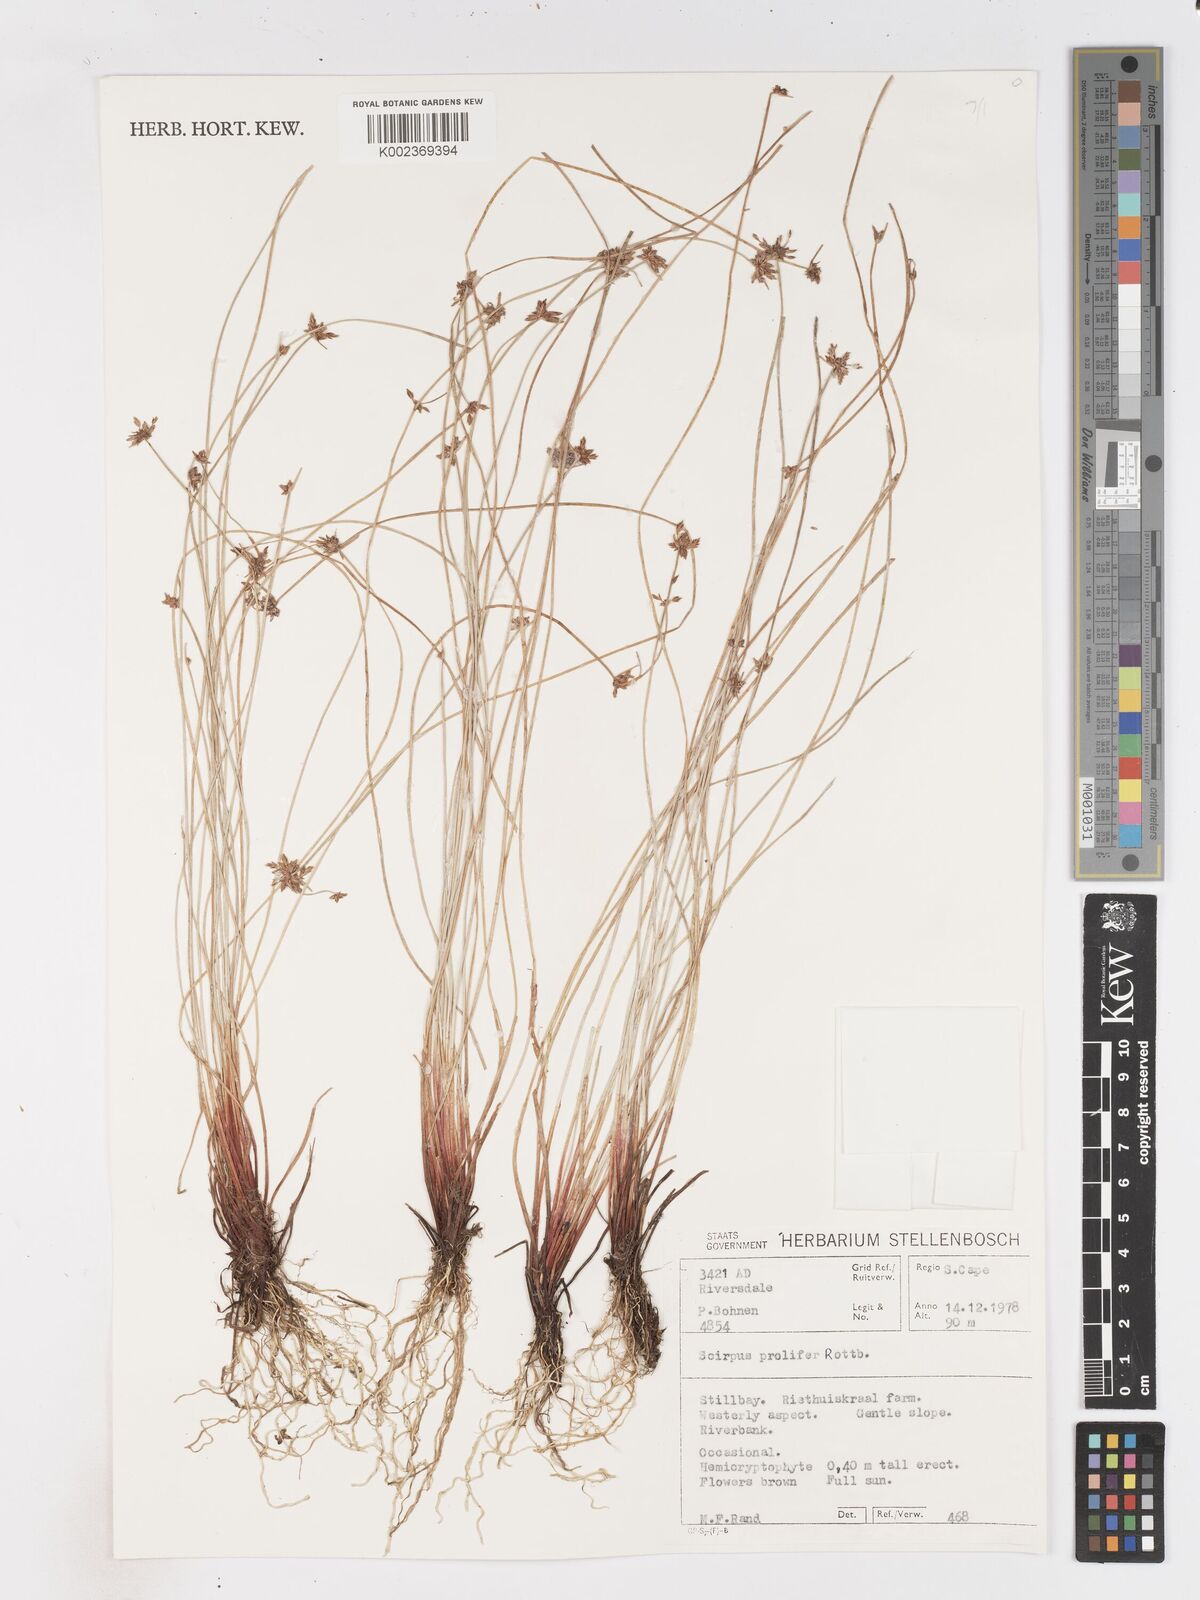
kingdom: Plantae
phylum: Tracheophyta
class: Liliopsida
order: Poales
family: Cyperaceae
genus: Isolepis
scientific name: Isolepis prolifera
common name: Proliferating bulrush
